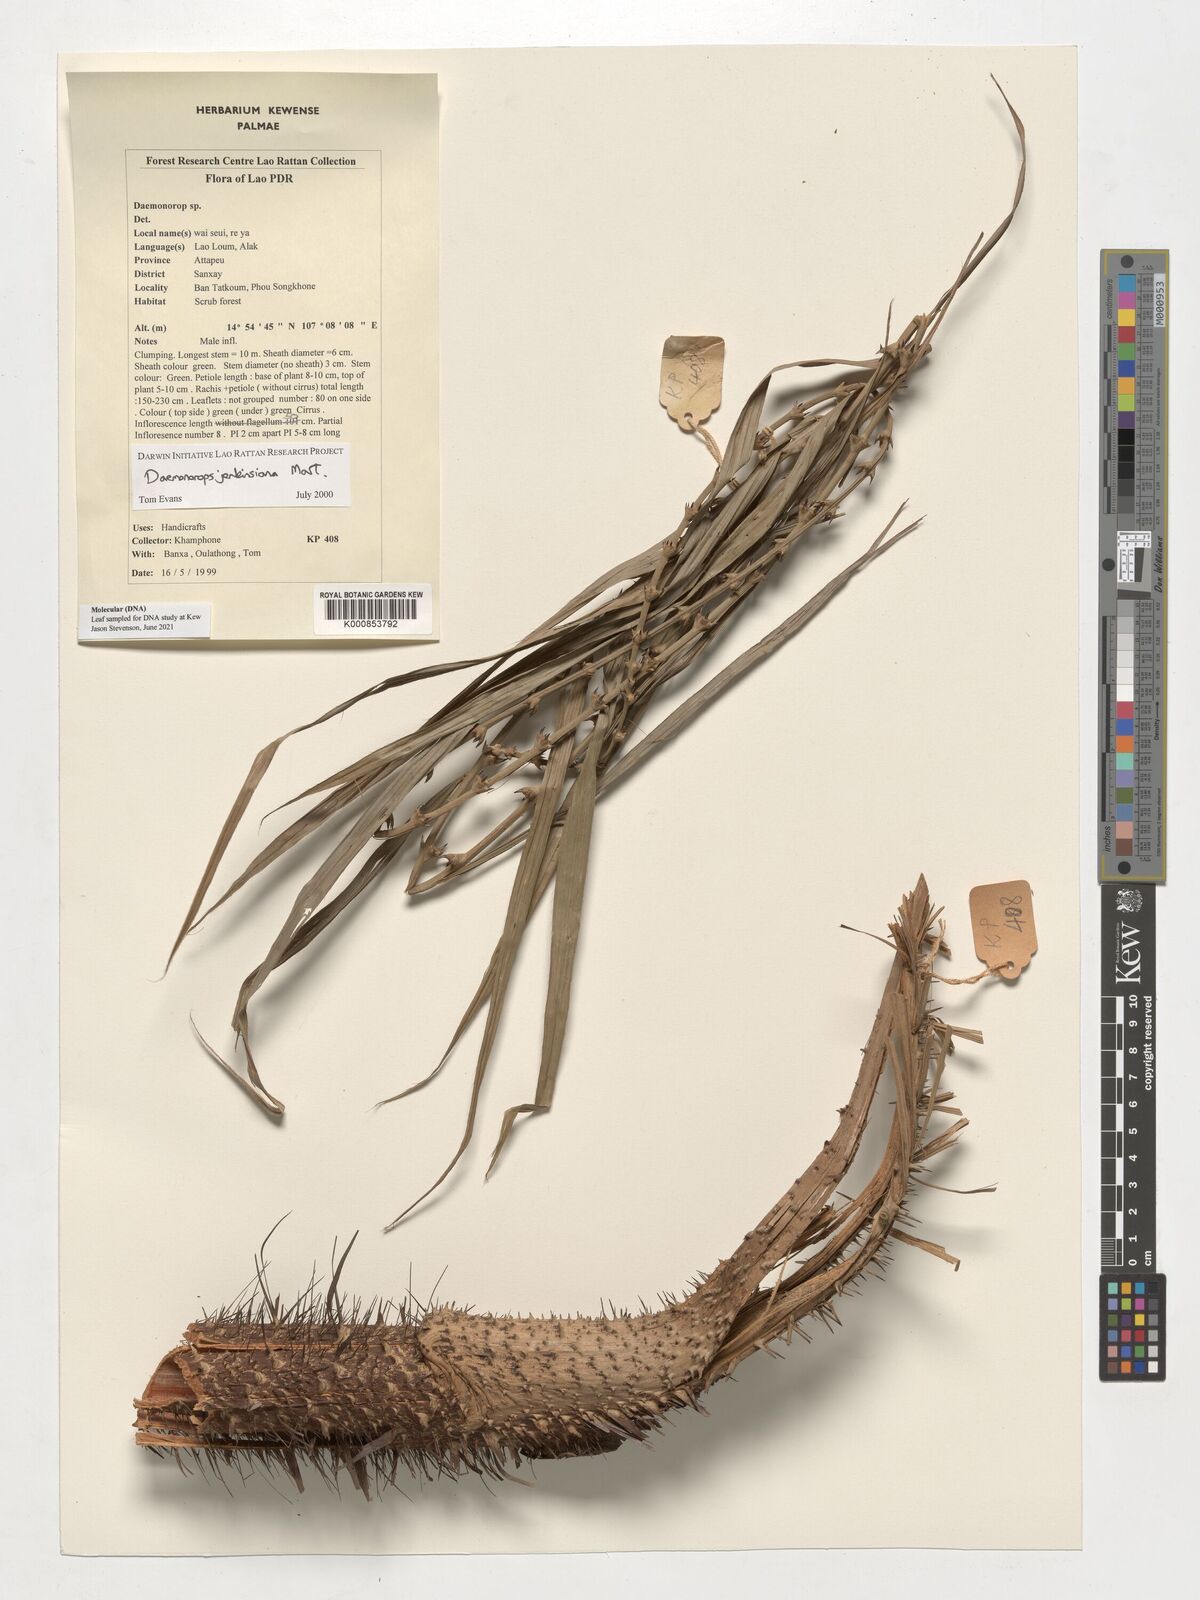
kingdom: Plantae
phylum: Tracheophyta
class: Liliopsida
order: Arecales
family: Arecaceae
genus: Calamus
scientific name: Calamus melanochaetes
